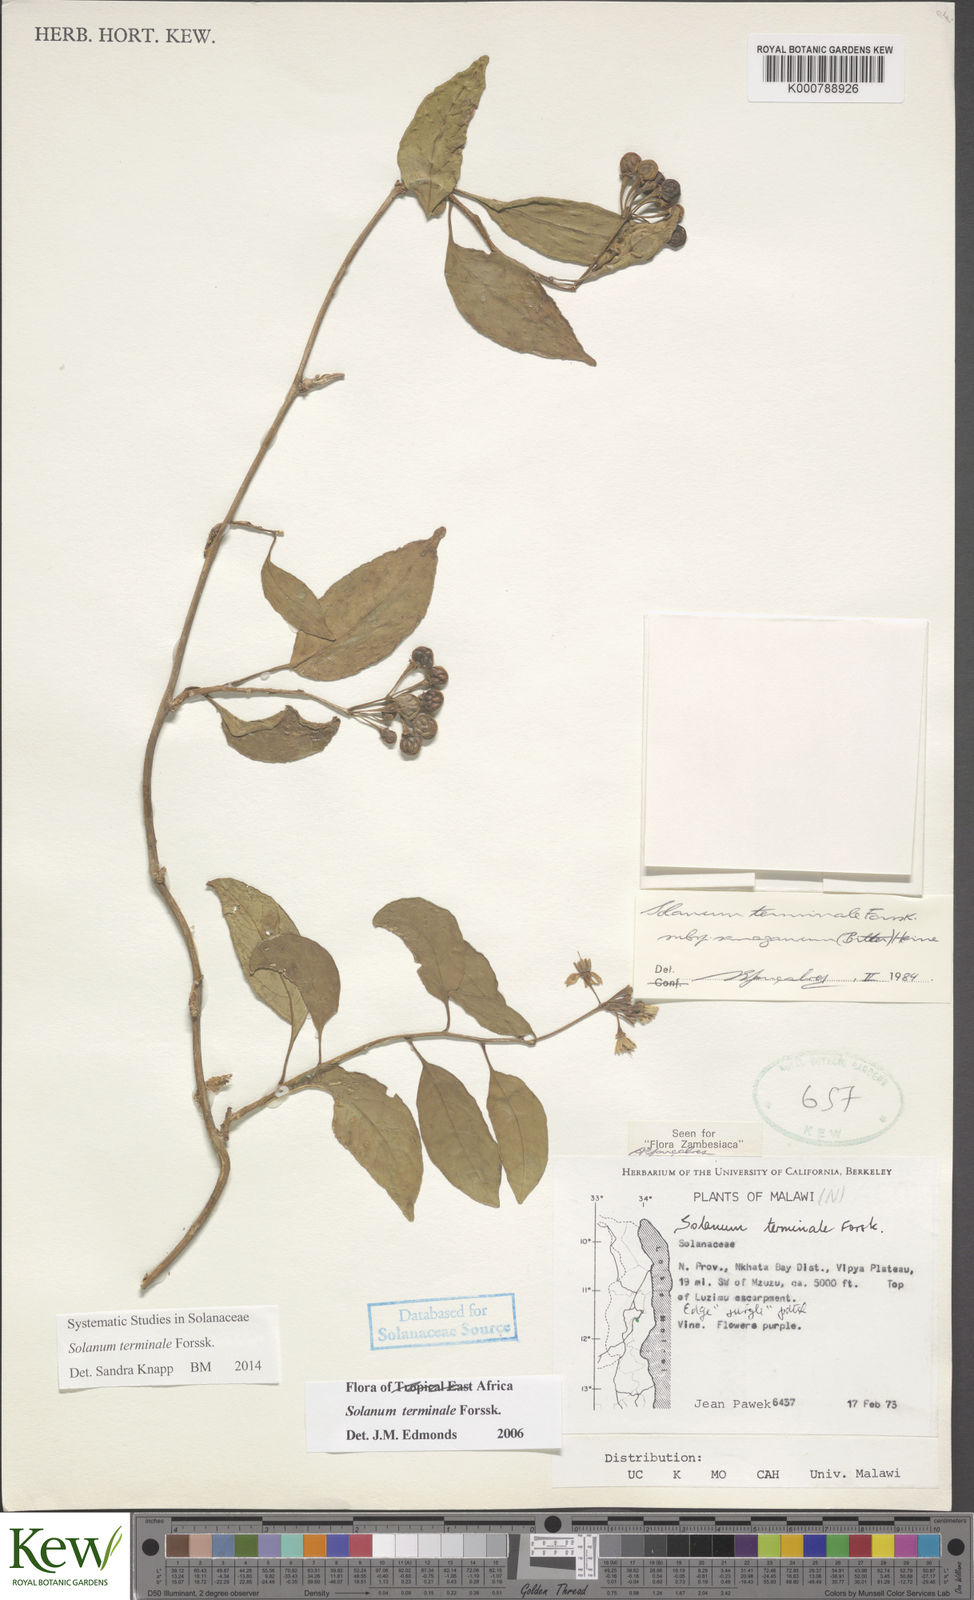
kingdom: Plantae
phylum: Tracheophyta
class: Magnoliopsida
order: Solanales
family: Solanaceae
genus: Solanum
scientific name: Solanum terminale
